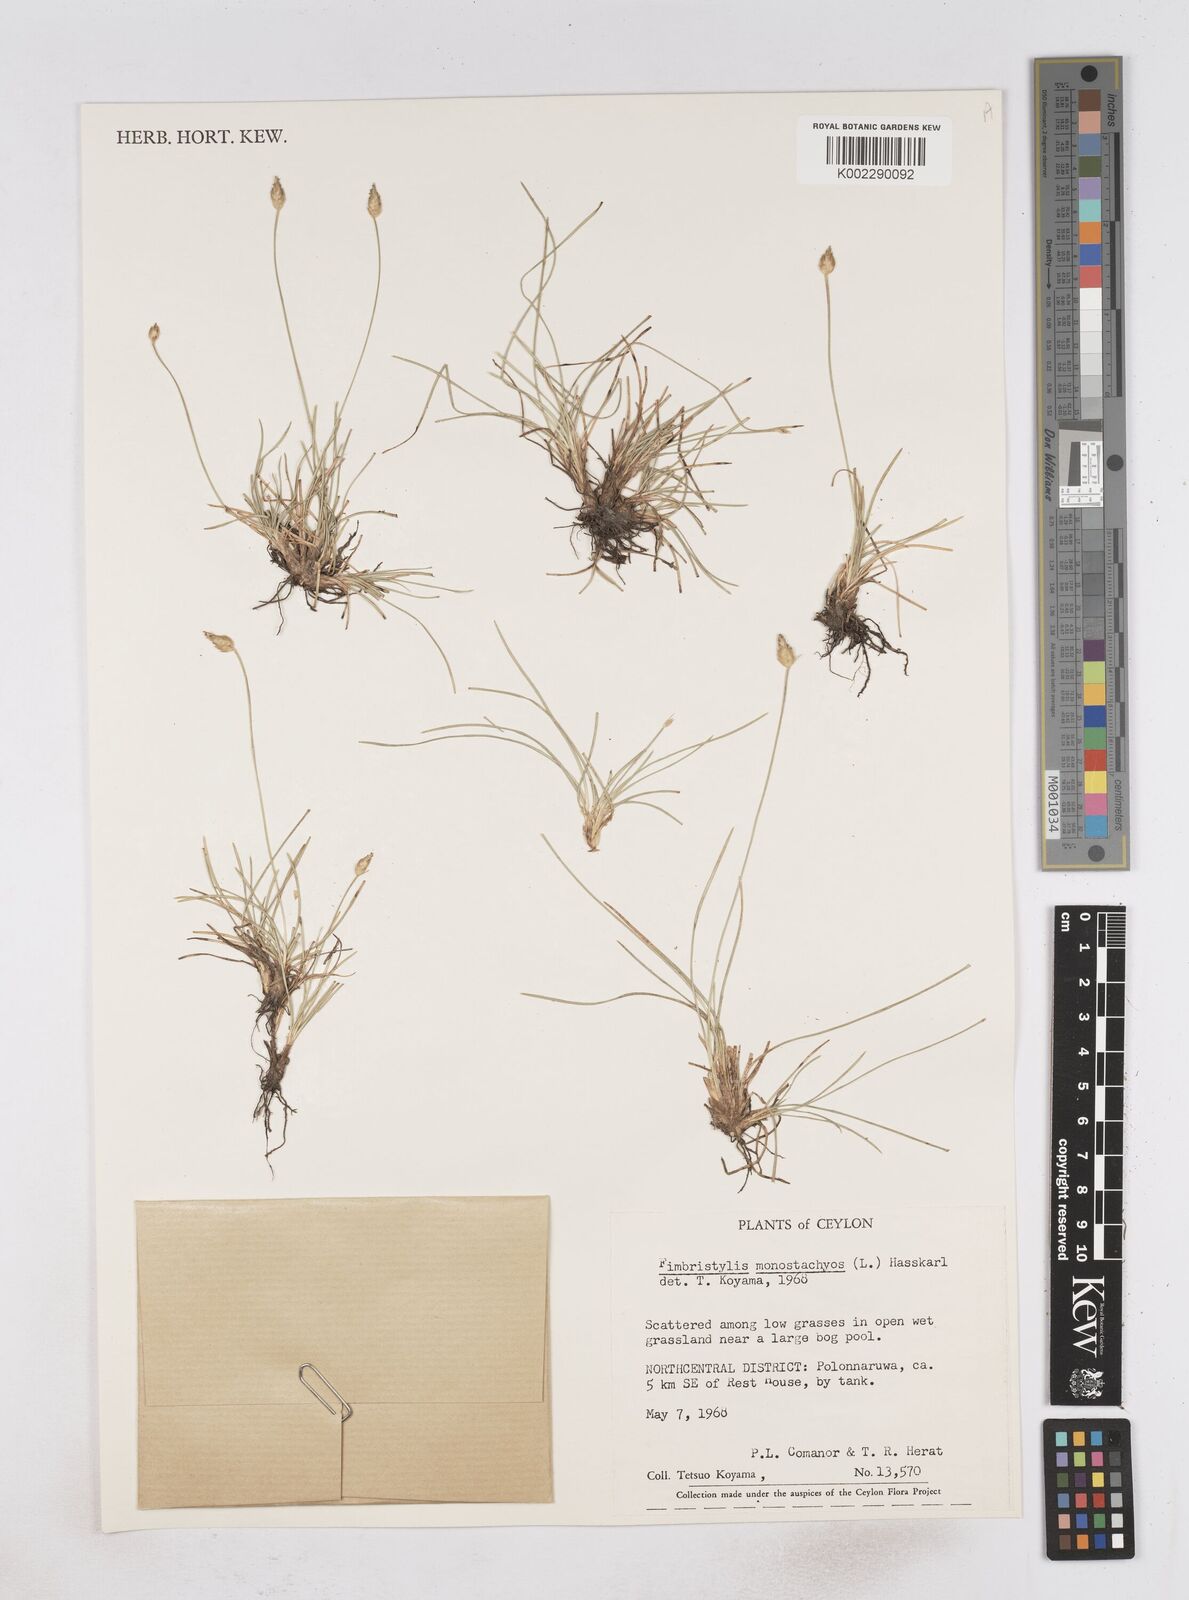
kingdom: Plantae
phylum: Tracheophyta
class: Liliopsida
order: Poales
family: Cyperaceae
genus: Abildgaardia
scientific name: Abildgaardia ovata
